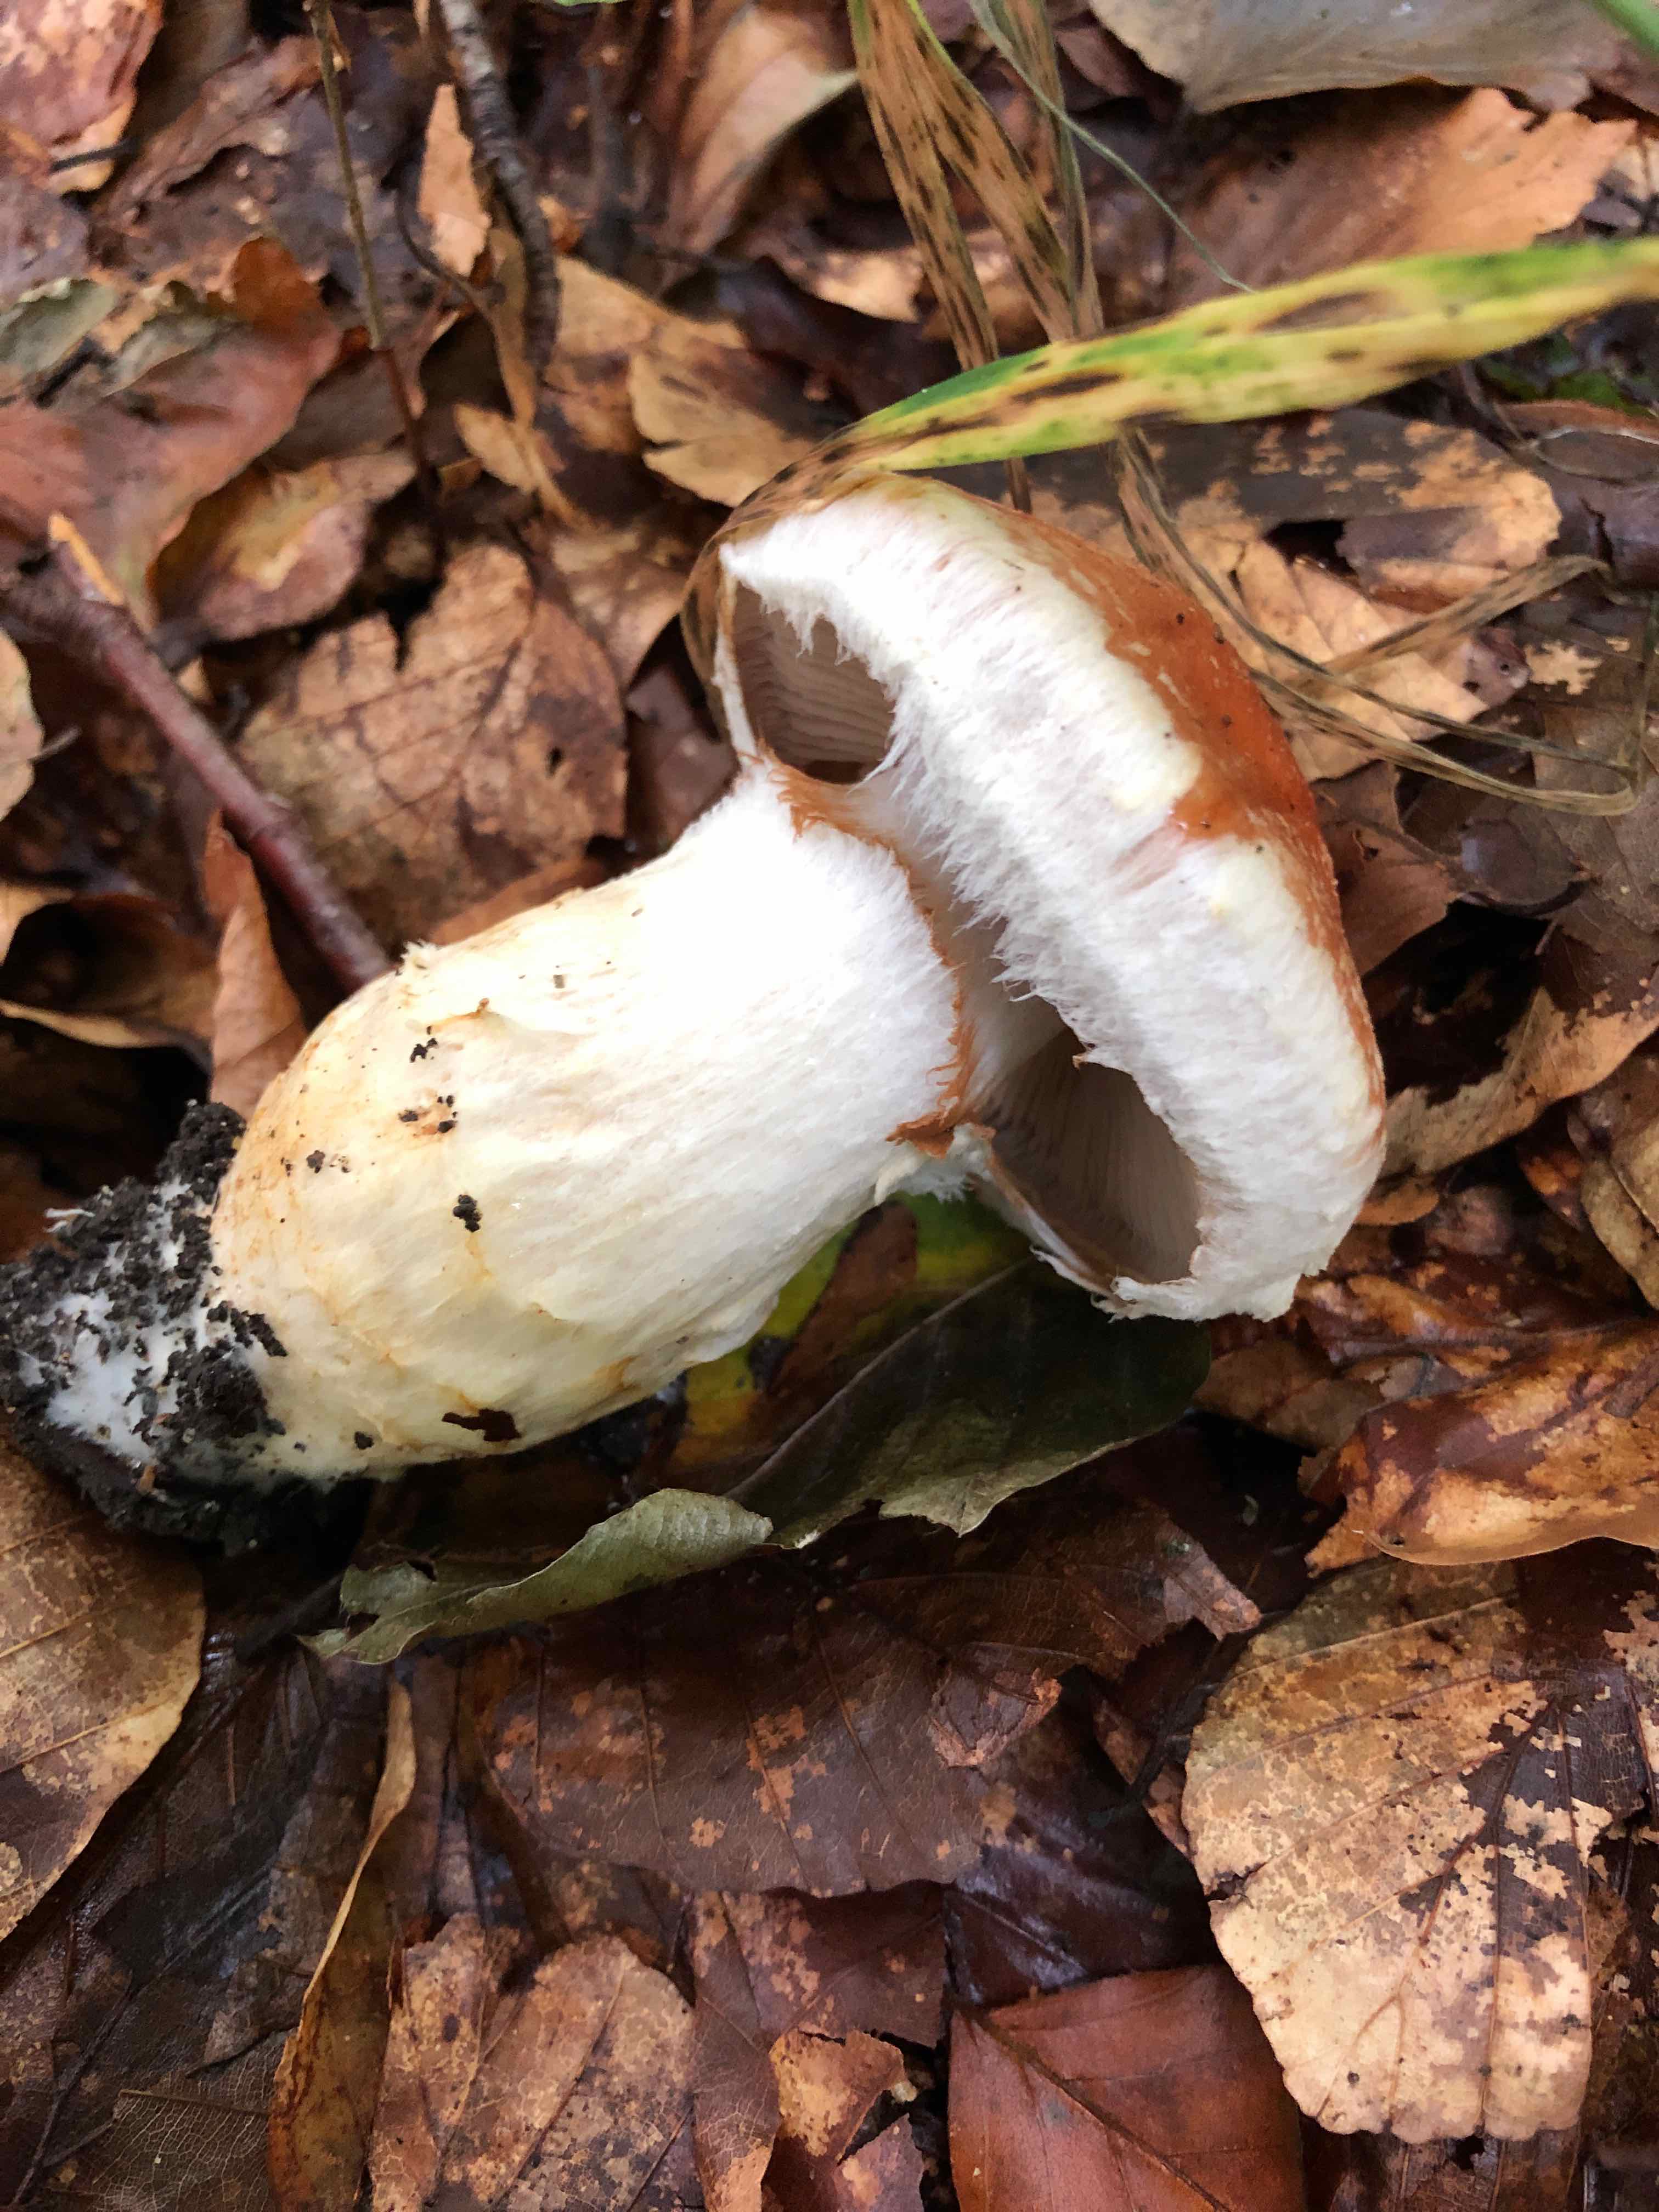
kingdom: Fungi
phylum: Basidiomycota
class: Agaricomycetes
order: Agaricales
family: Cortinariaceae
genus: Phlegmacium
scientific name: Phlegmacium vulpinum
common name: ringbæltet slørhat
